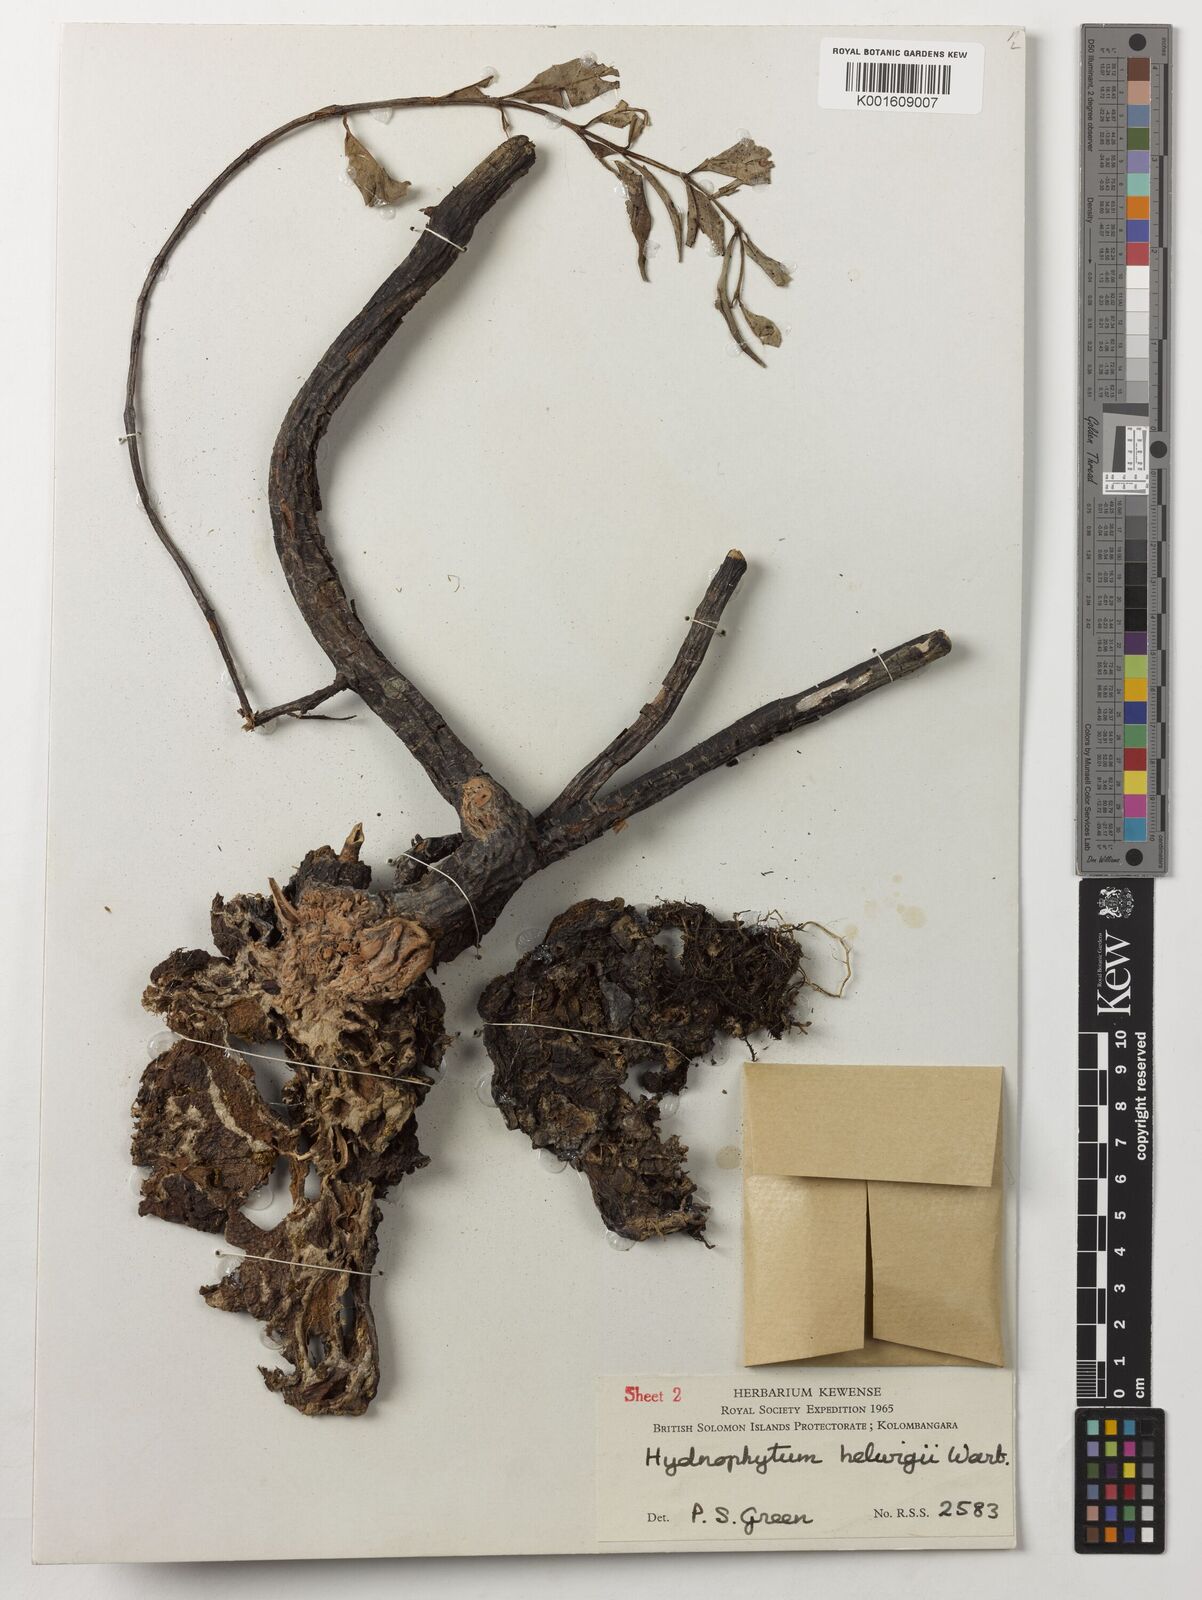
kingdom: Plantae
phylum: Tracheophyta
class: Magnoliopsida
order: Gentianales
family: Rubiaceae
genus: Hydnophytum
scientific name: Hydnophytum hellwigii
